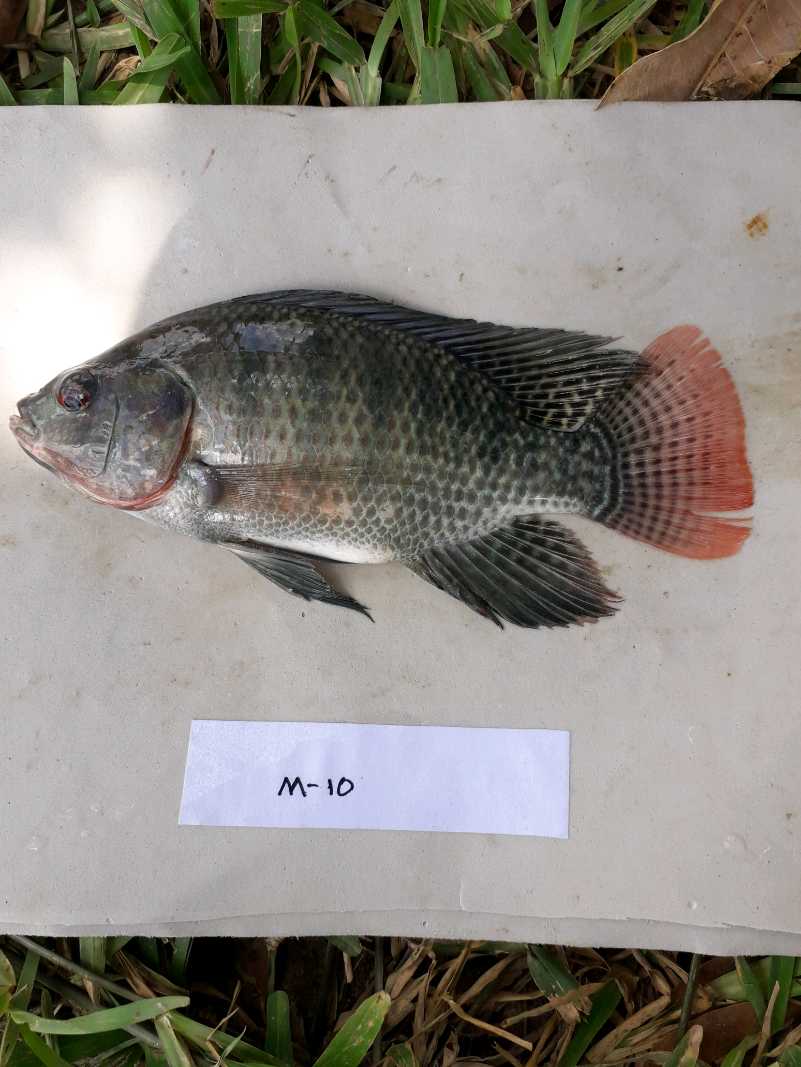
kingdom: Animalia
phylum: Chordata
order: Perciformes
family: Cichlidae
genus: Oreochromis
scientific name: Oreochromis niloticus
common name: Nile tilapia
